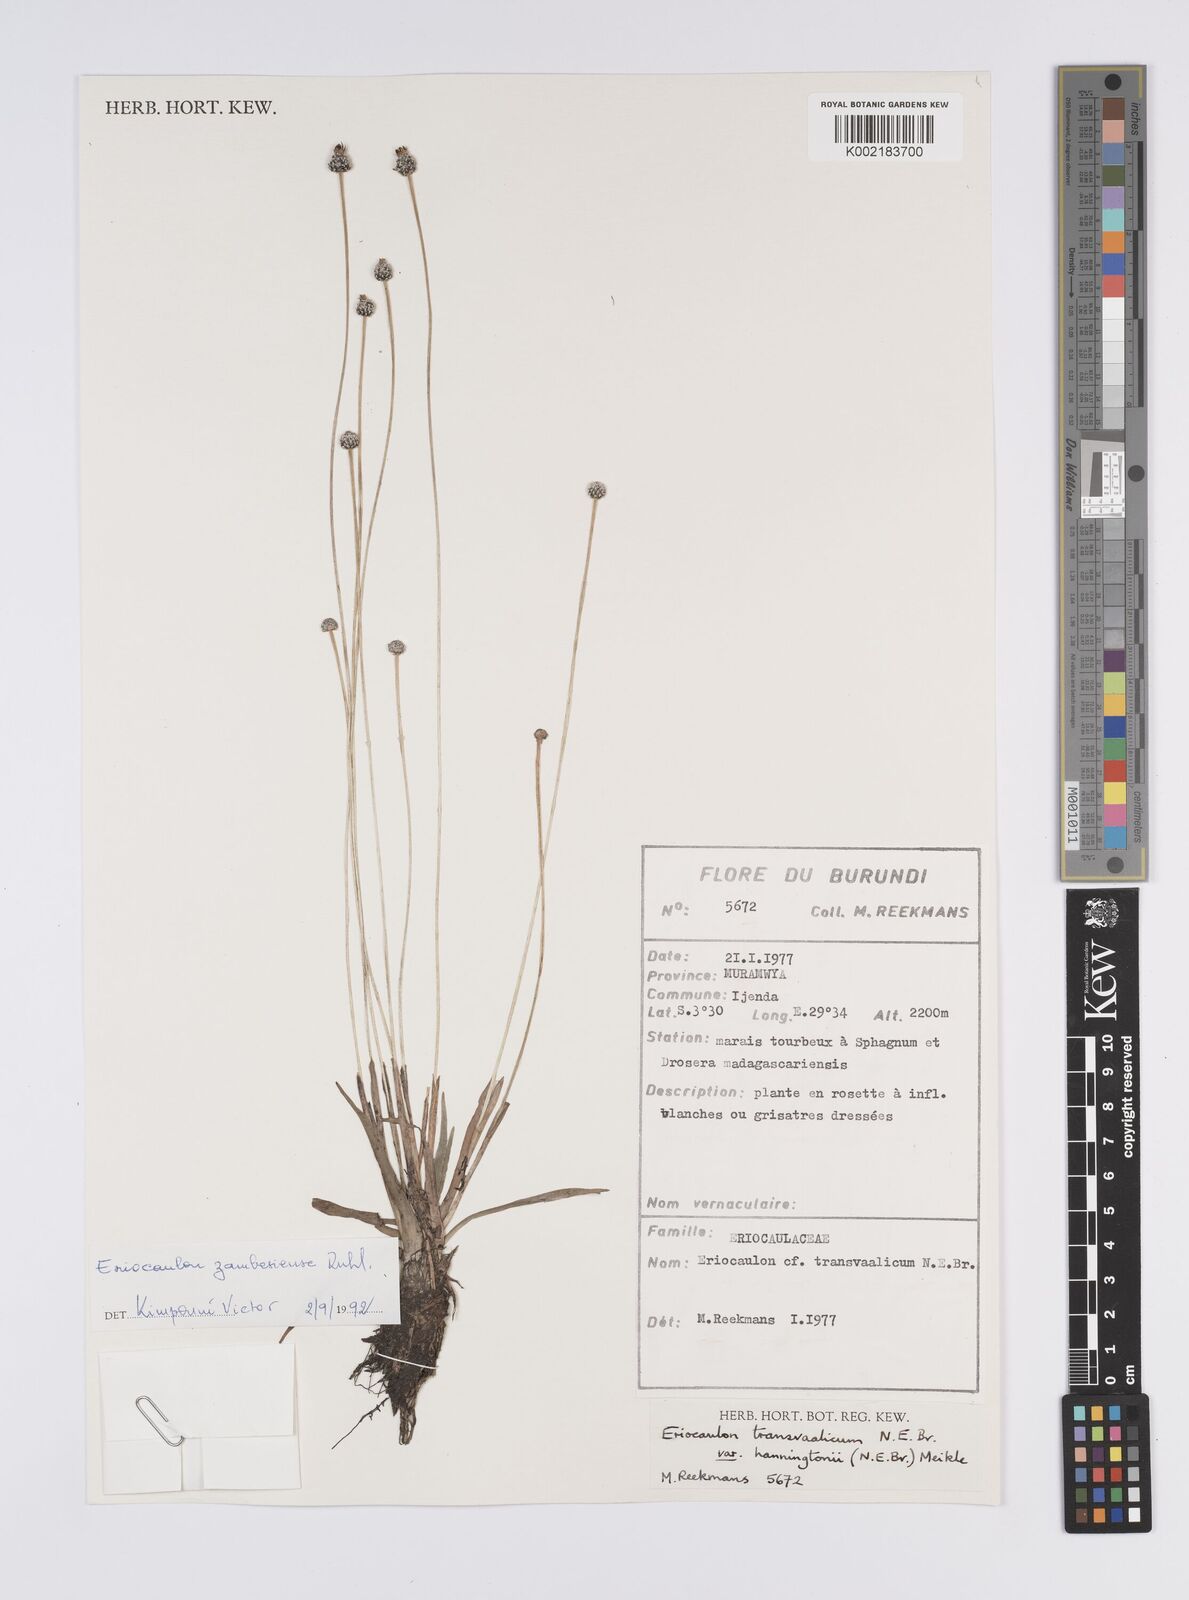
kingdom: Plantae
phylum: Tracheophyta
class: Liliopsida
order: Poales
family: Eriocaulaceae
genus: Eriocaulon
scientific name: Eriocaulon zambesiense
